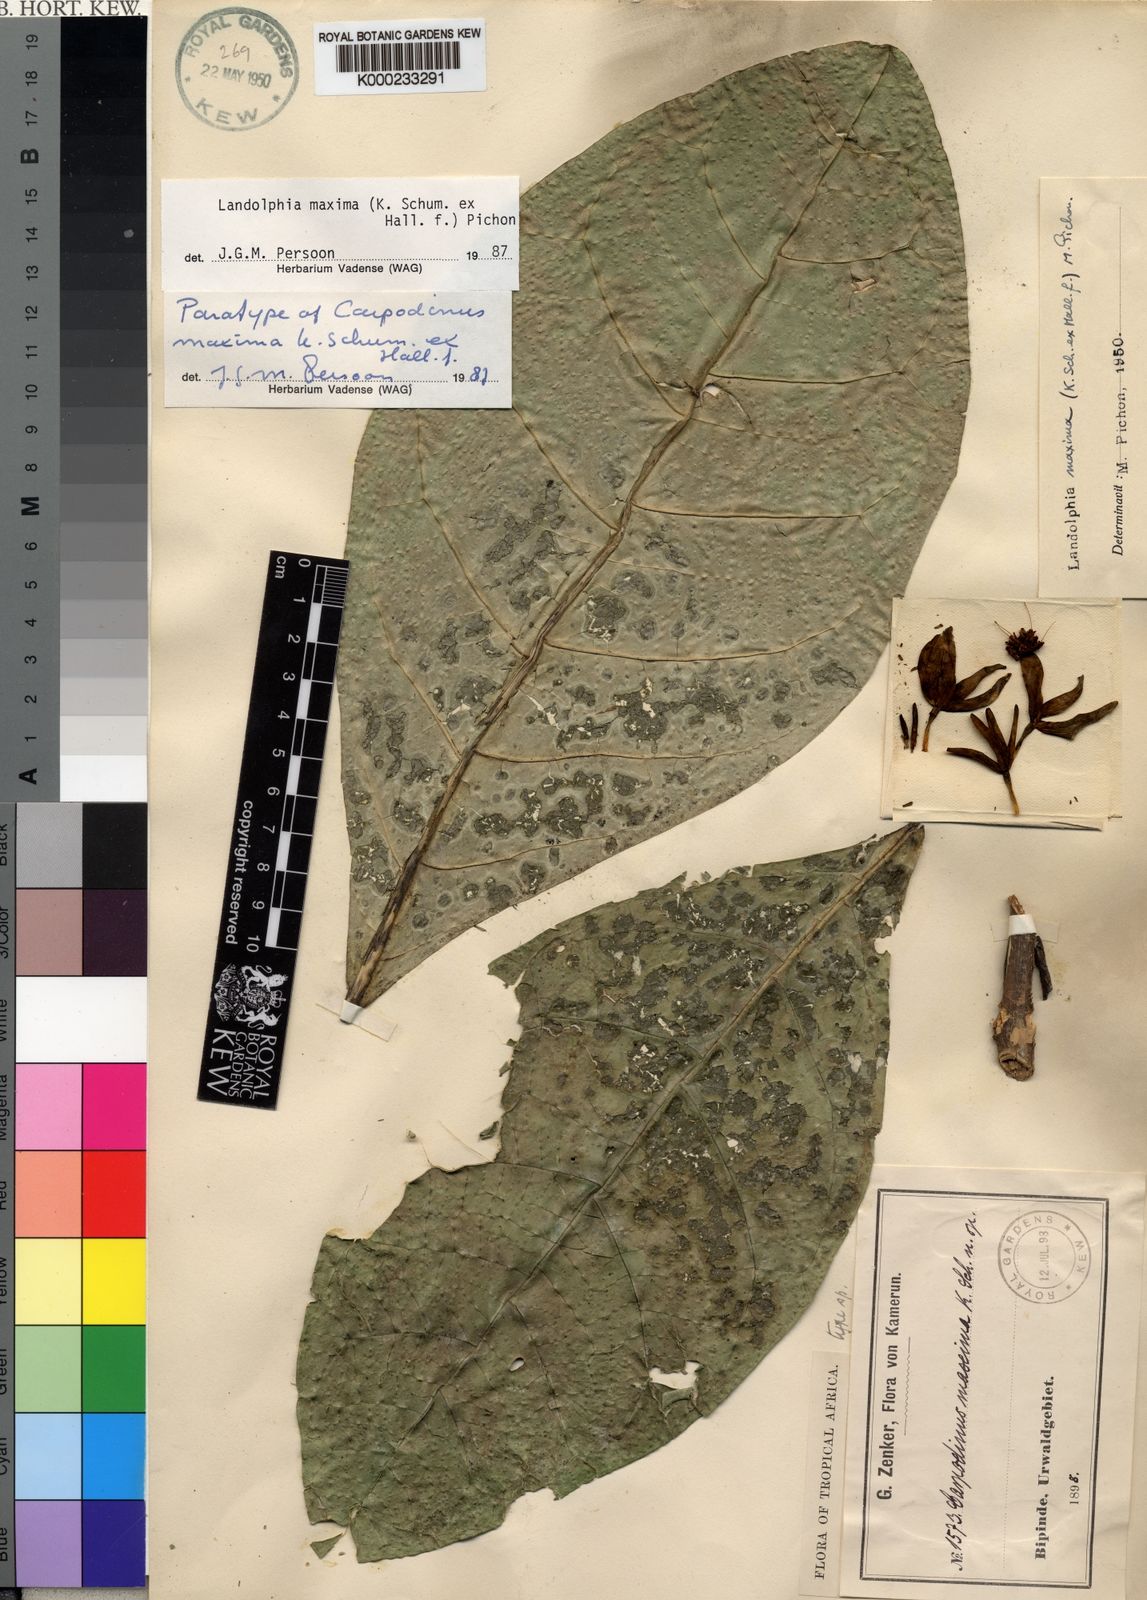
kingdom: Plantae
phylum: Tracheophyta
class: Magnoliopsida
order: Gentianales
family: Apocynaceae
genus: Landolphia
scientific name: Landolphia maxima
